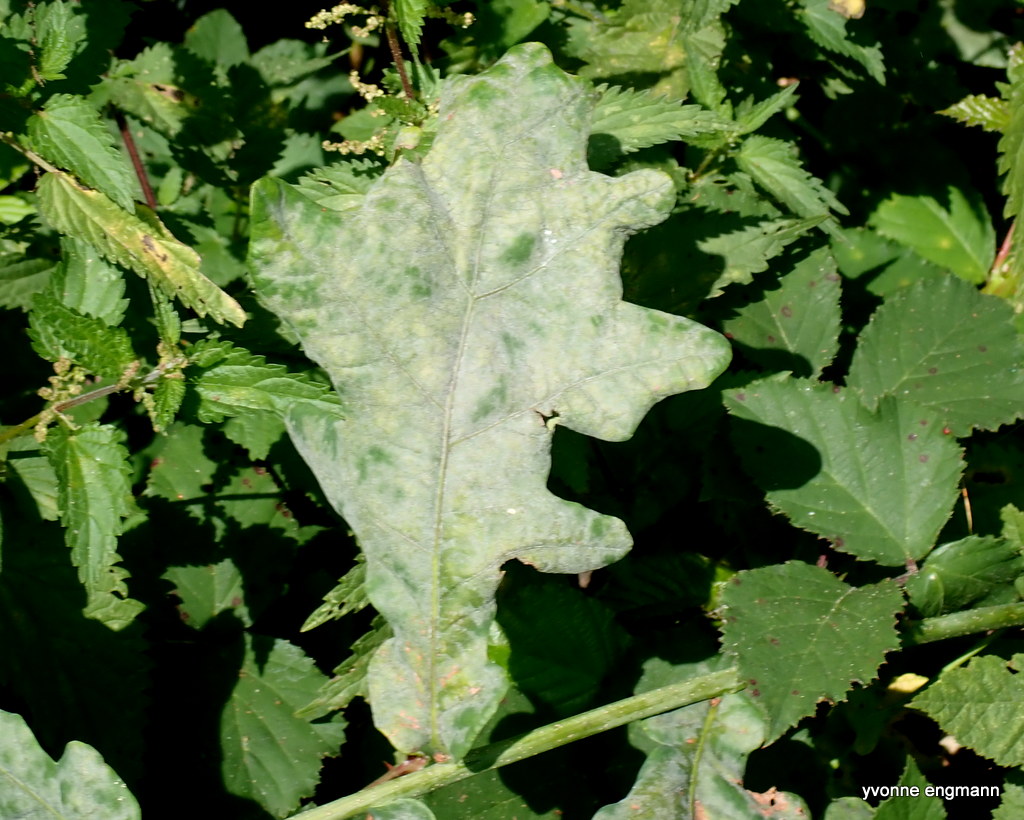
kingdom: Fungi
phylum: Ascomycota
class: Leotiomycetes
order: Helotiales
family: Erysiphaceae
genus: Erysiphe
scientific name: Erysiphe alphitoides
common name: ege-meldug
